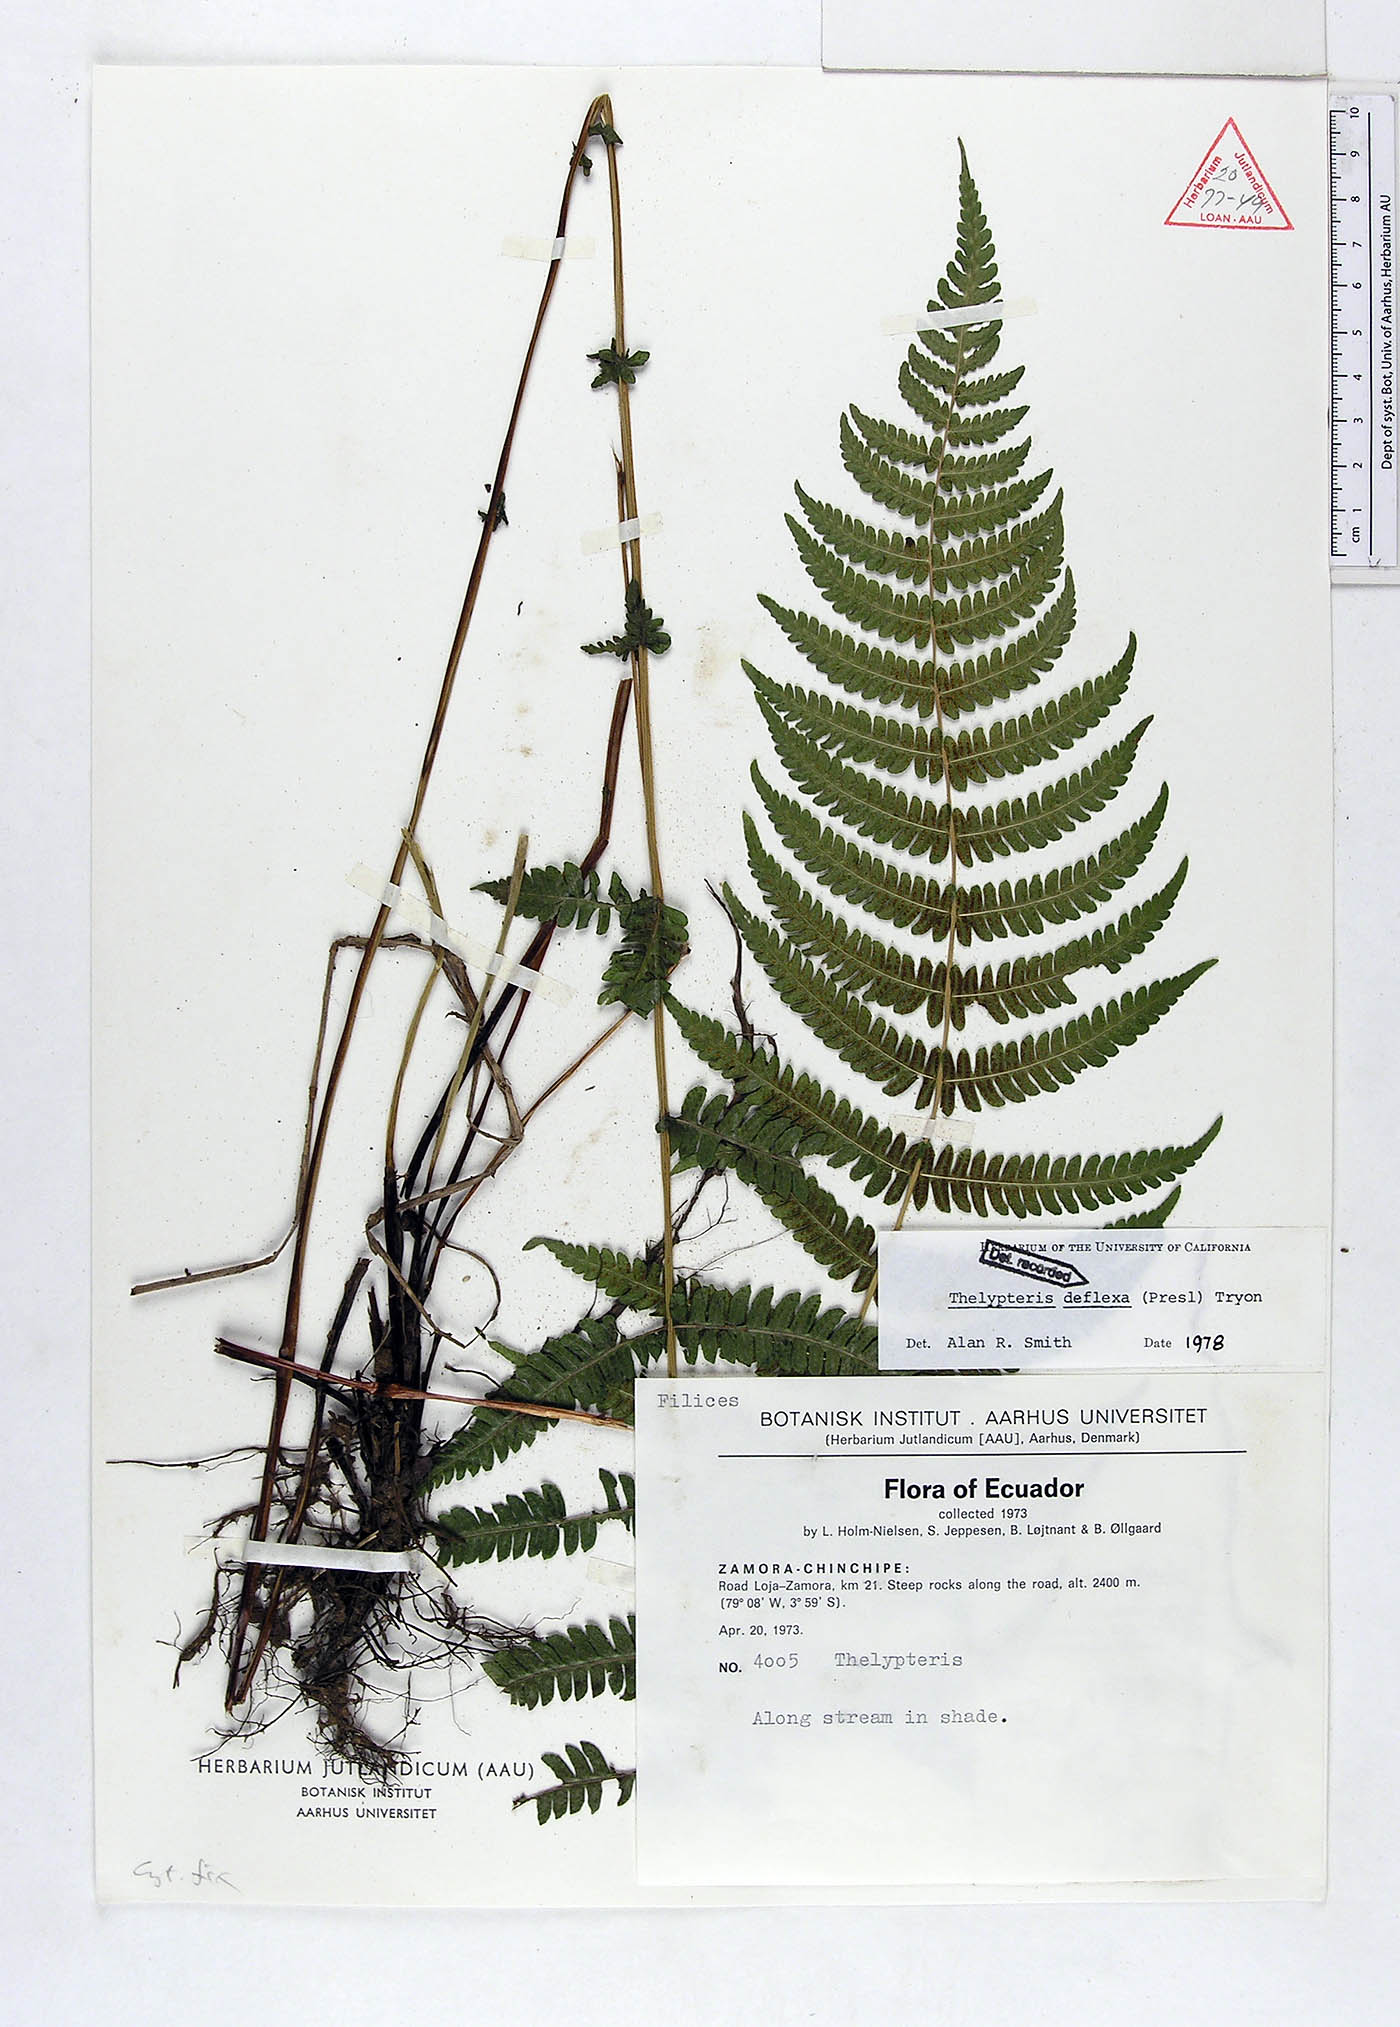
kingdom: Plantae
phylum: Tracheophyta
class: Polypodiopsida
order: Polypodiales
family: Thelypteridaceae
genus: Amauropelta
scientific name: Amauropelta deflexa
